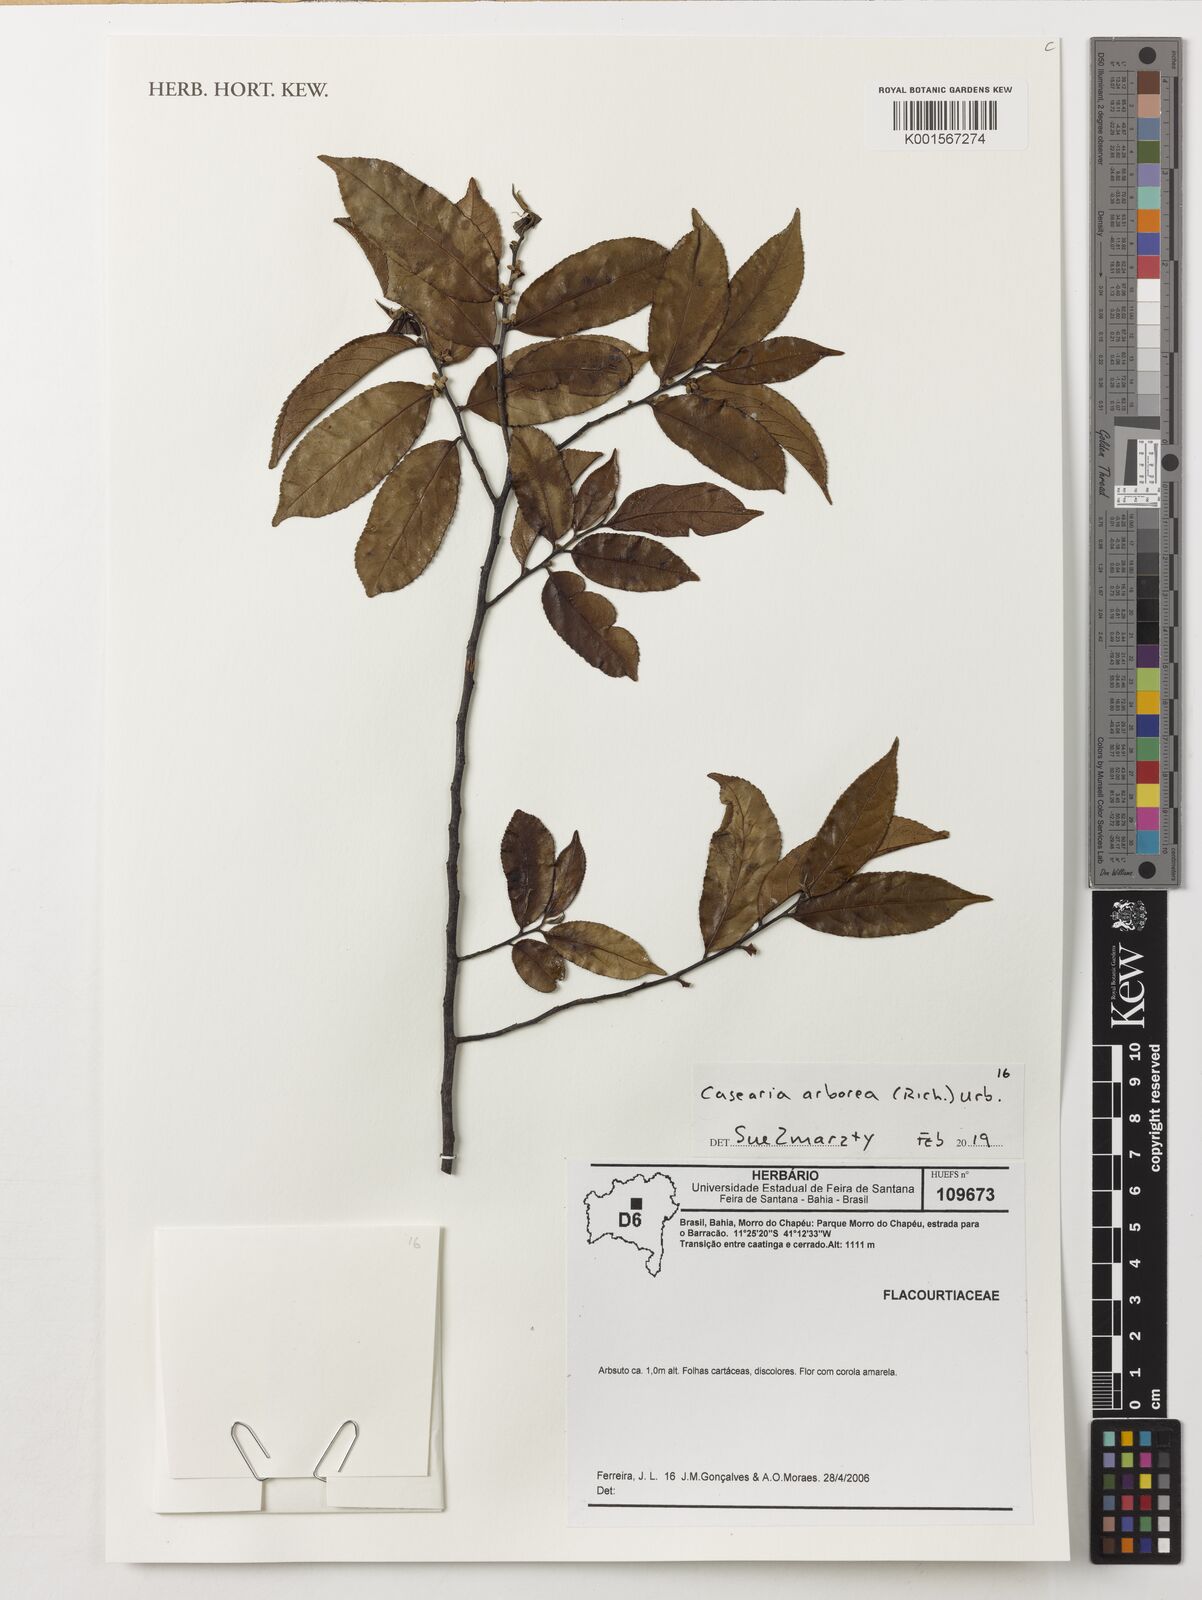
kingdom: Plantae
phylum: Tracheophyta
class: Magnoliopsida
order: Malpighiales
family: Salicaceae
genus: Casearia
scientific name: Casearia arborea
